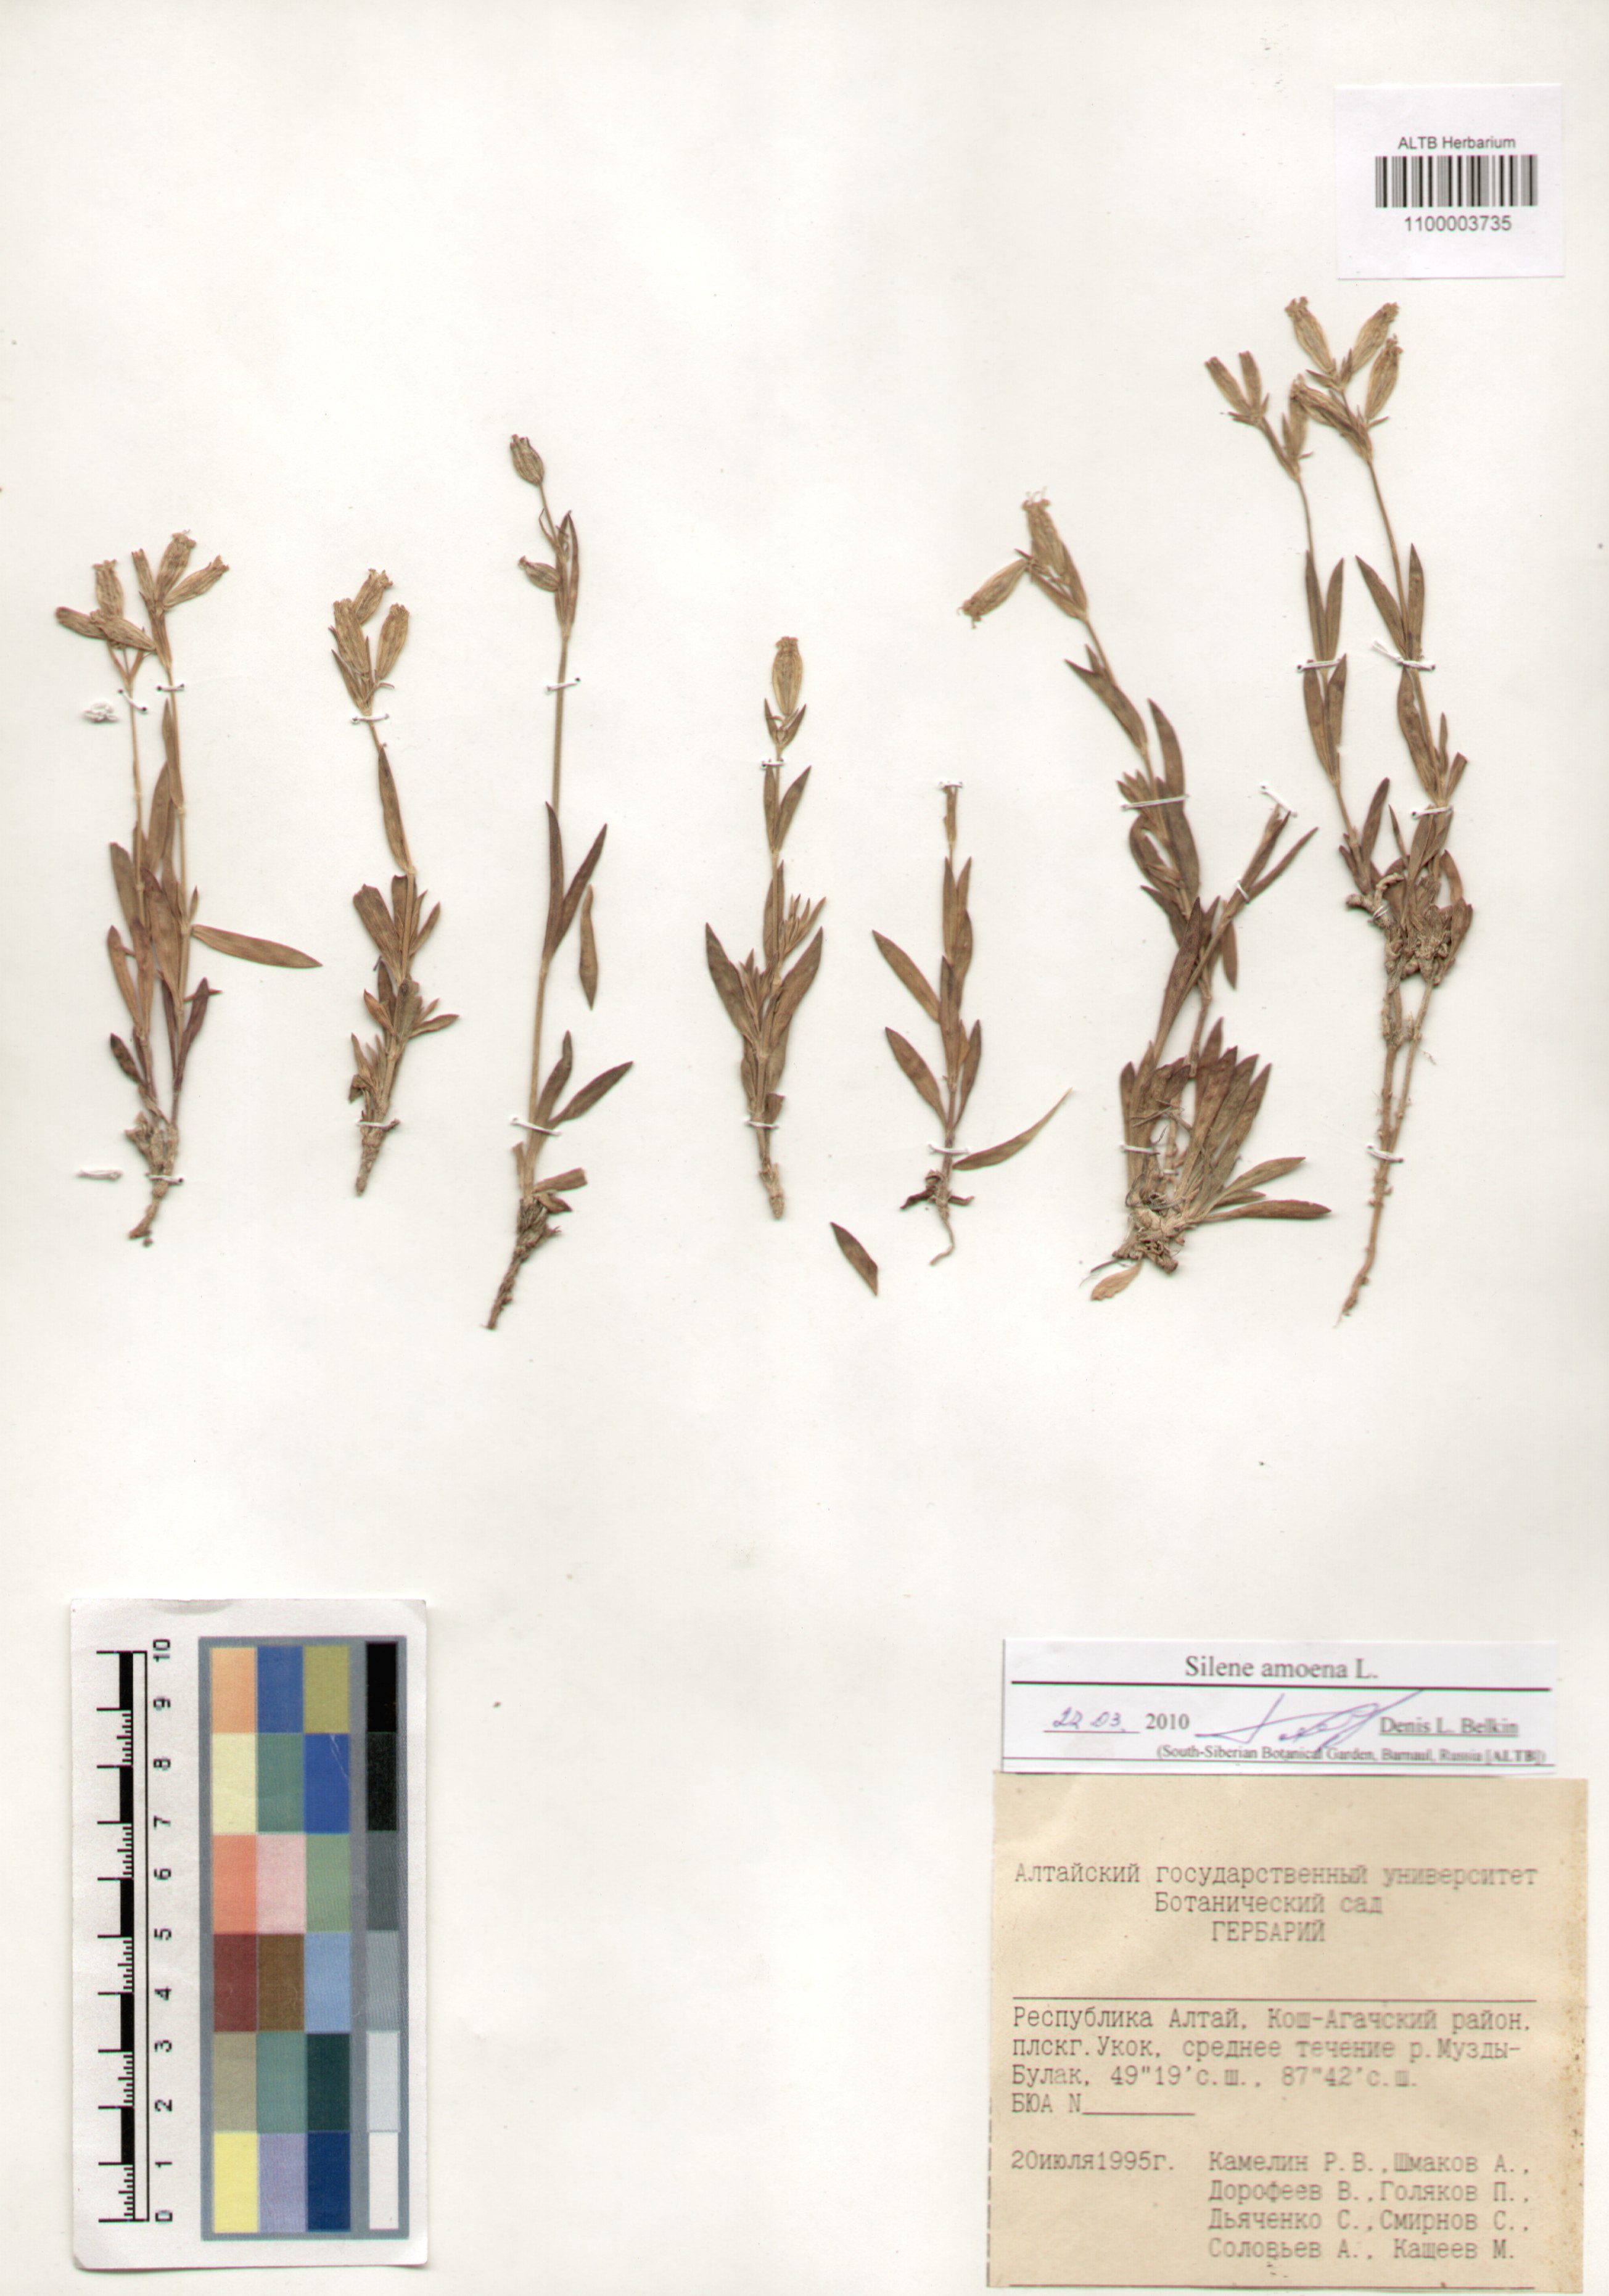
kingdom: Plantae
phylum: Tracheophyta
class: Magnoliopsida
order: Caryophyllales
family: Caryophyllaceae
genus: Silene
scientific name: Silene amoena
